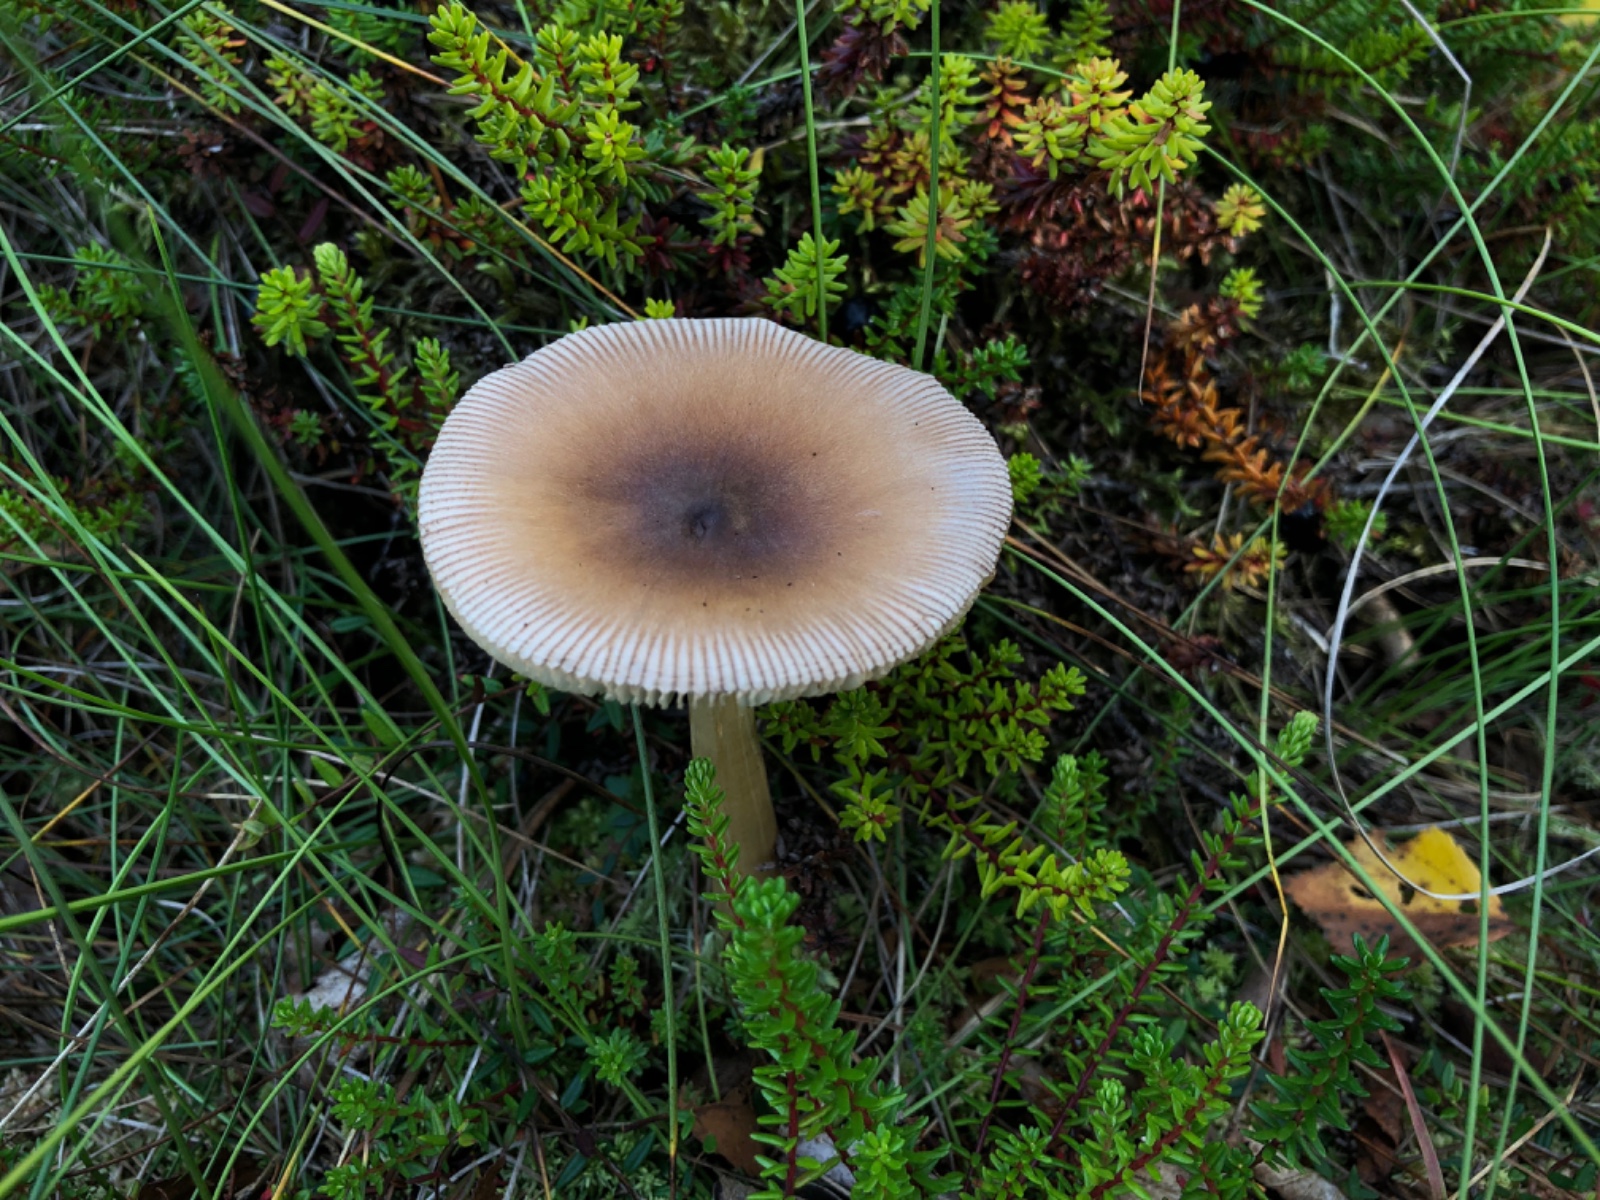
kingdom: Fungi
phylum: Basidiomycota
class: Agaricomycetes
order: Agaricales
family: Amanitaceae
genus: Amanita
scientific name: Amanita fulva
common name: brun kam-fluesvamp
